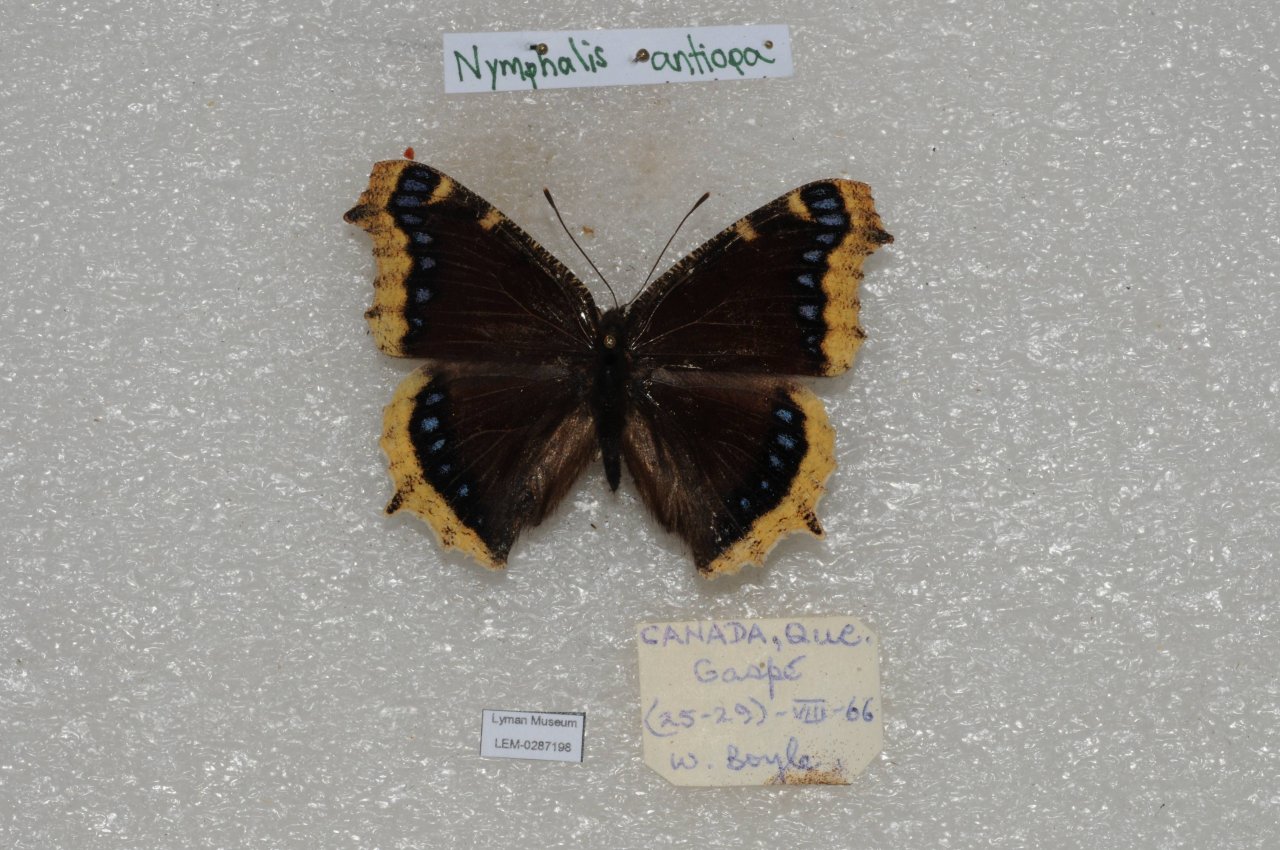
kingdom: Animalia
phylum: Arthropoda
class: Insecta
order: Lepidoptera
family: Nymphalidae
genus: Nymphalis
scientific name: Nymphalis antiopa
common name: Mourning Cloak
